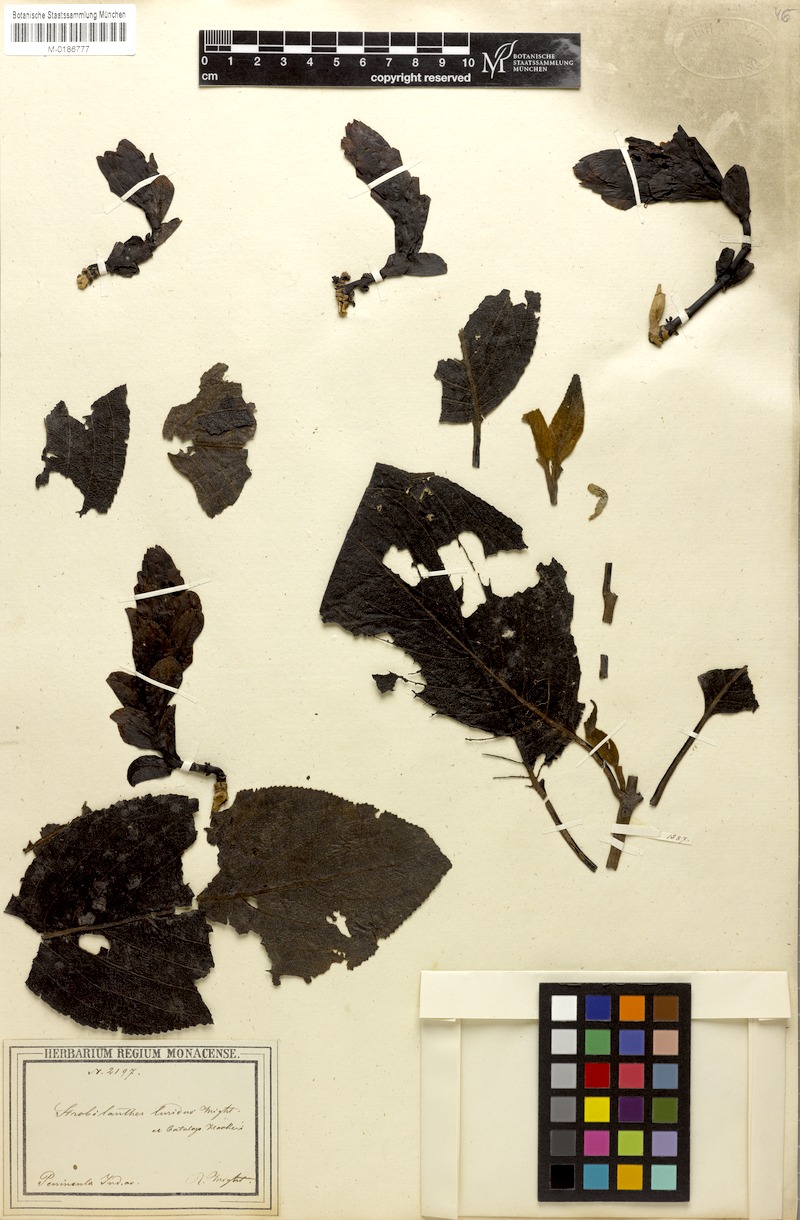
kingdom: Plantae
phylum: Tracheophyta
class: Magnoliopsida
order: Lamiales
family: Acanthaceae
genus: Strobilanthes
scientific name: Strobilanthes lurida
